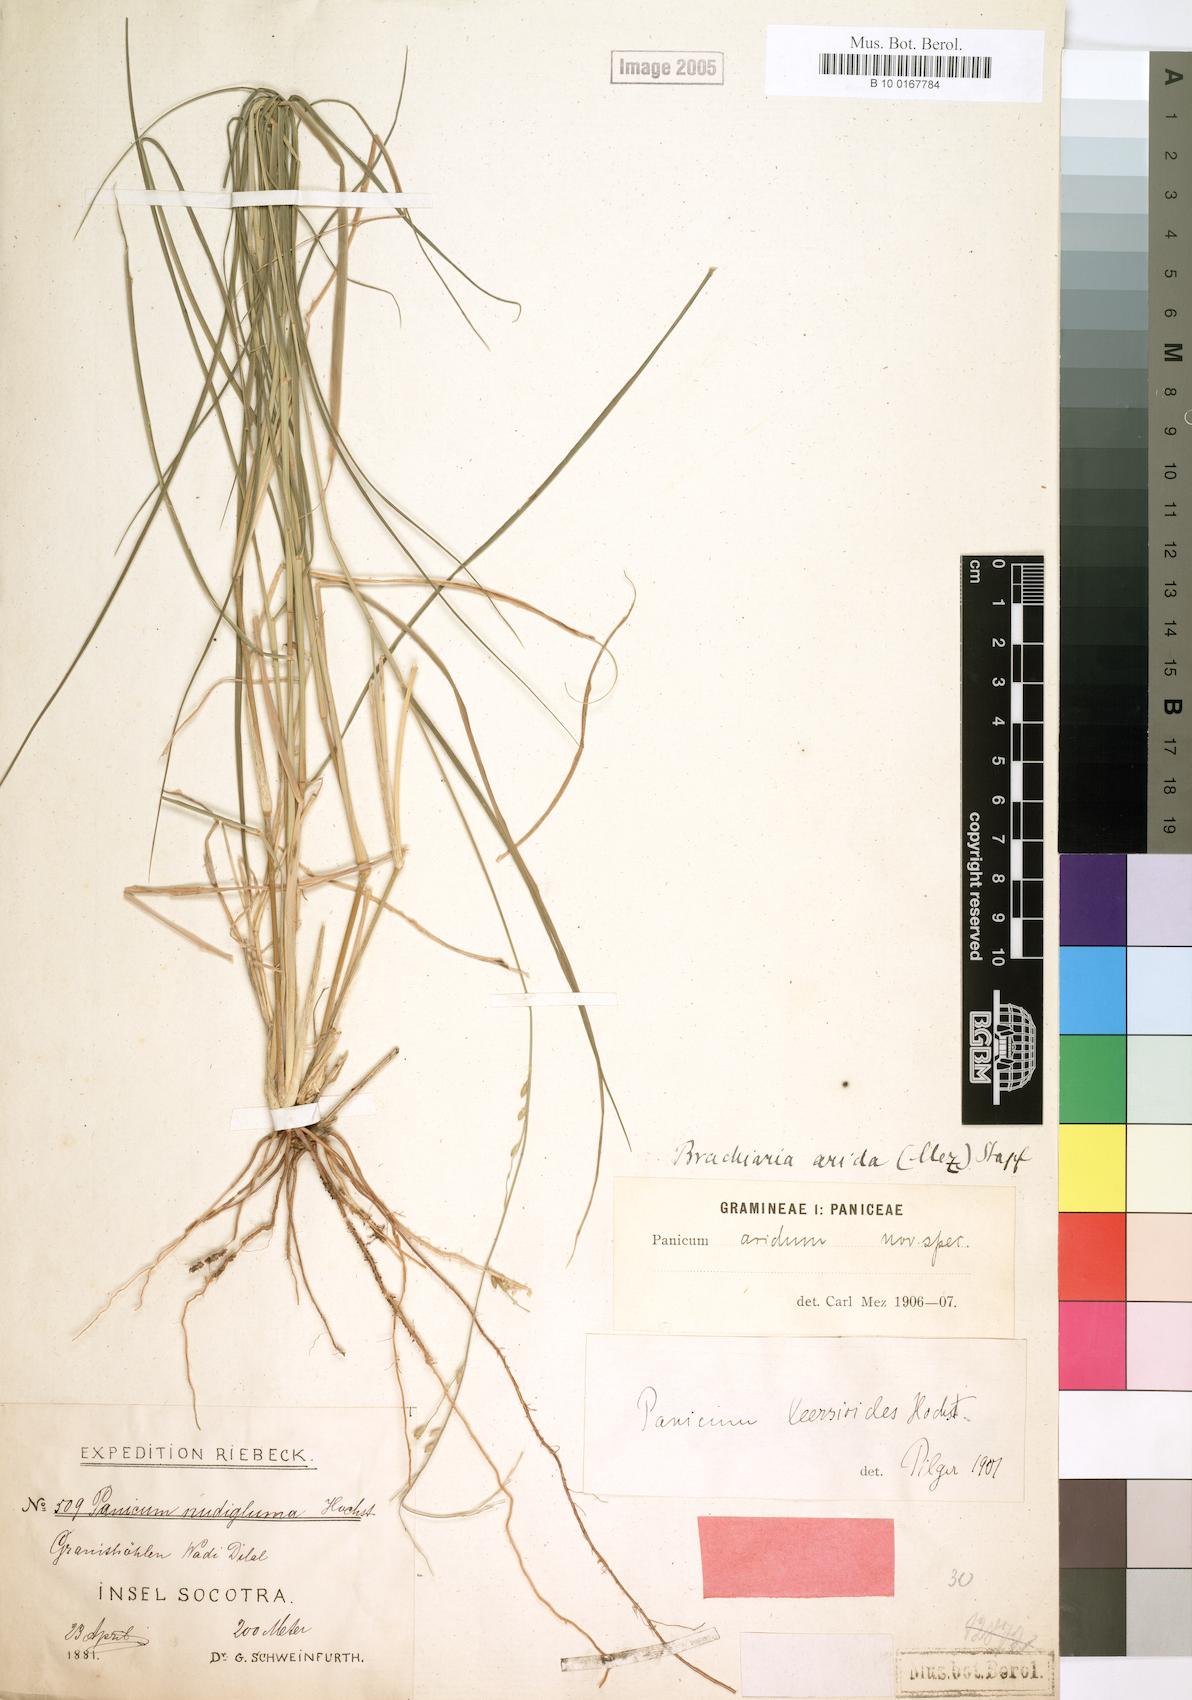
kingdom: Plantae
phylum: Tracheophyta
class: Liliopsida
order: Poales
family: Poaceae
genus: Urochloa
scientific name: Urochloa arida
